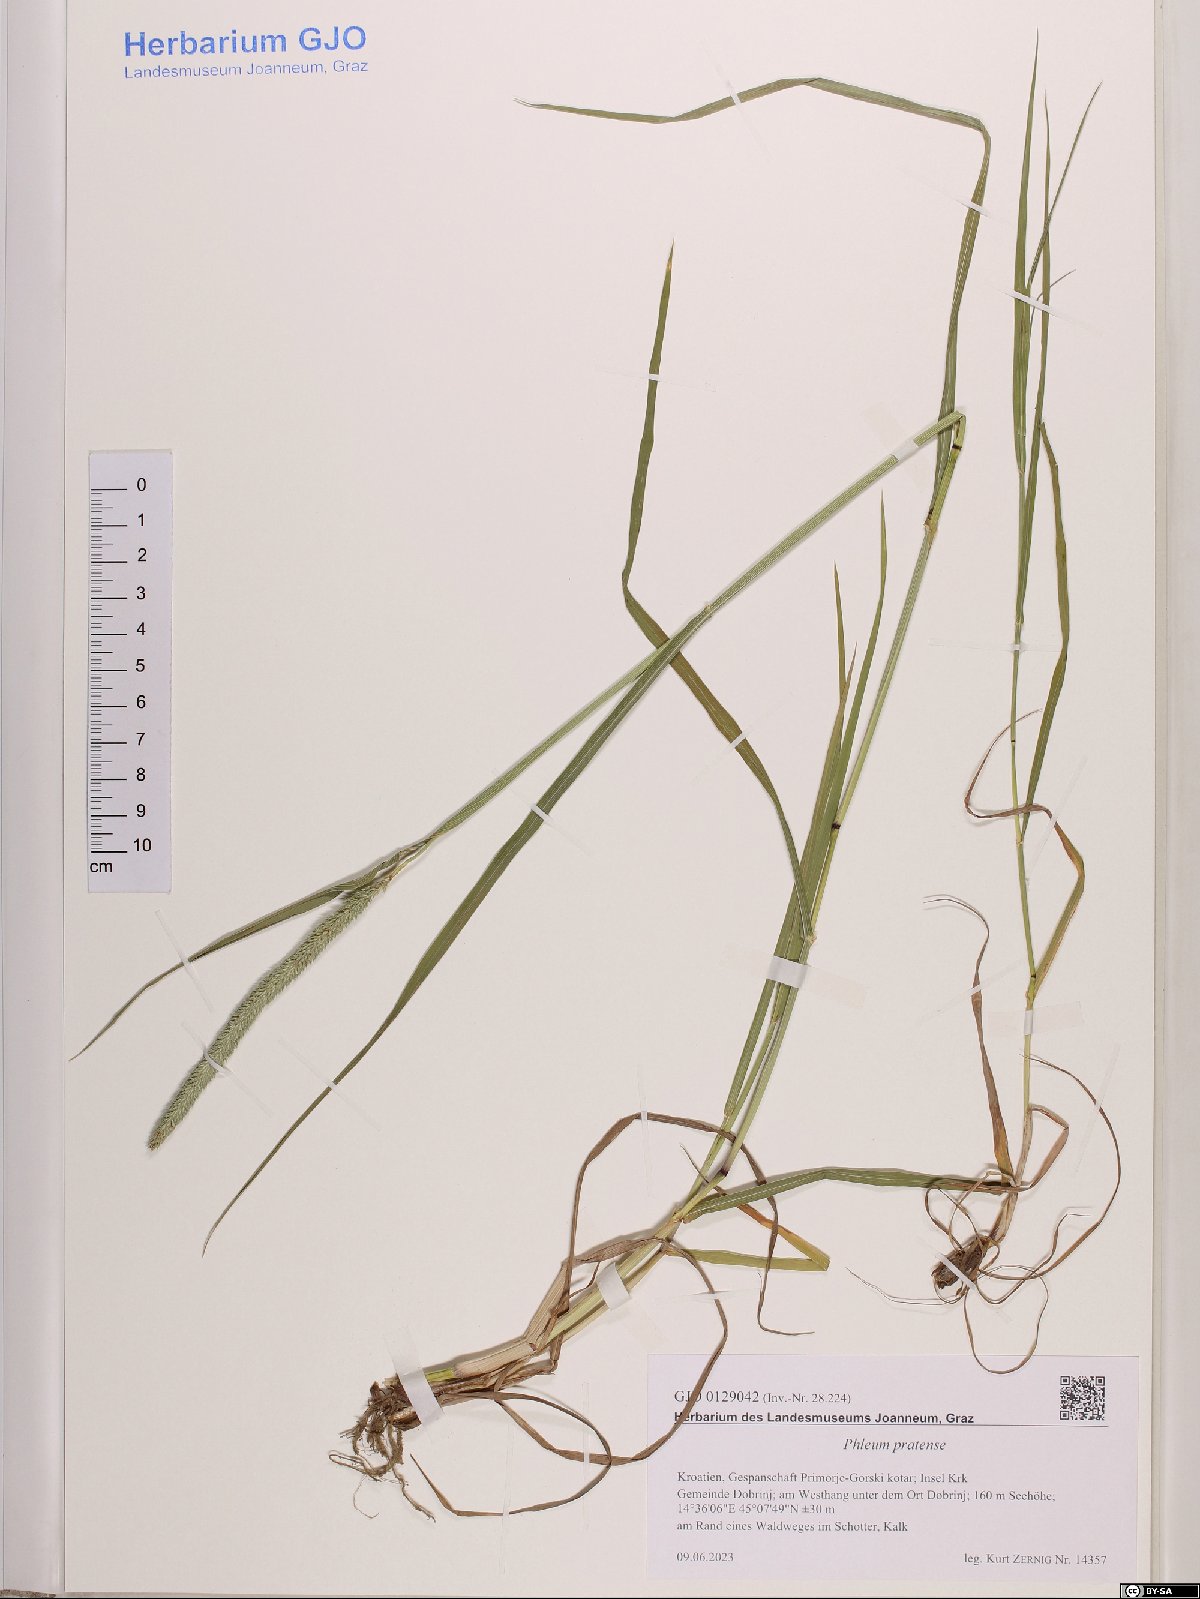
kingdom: Plantae
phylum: Tracheophyta
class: Liliopsida
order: Poales
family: Poaceae
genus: Phleum
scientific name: Phleum pratense
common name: Timothy grass
